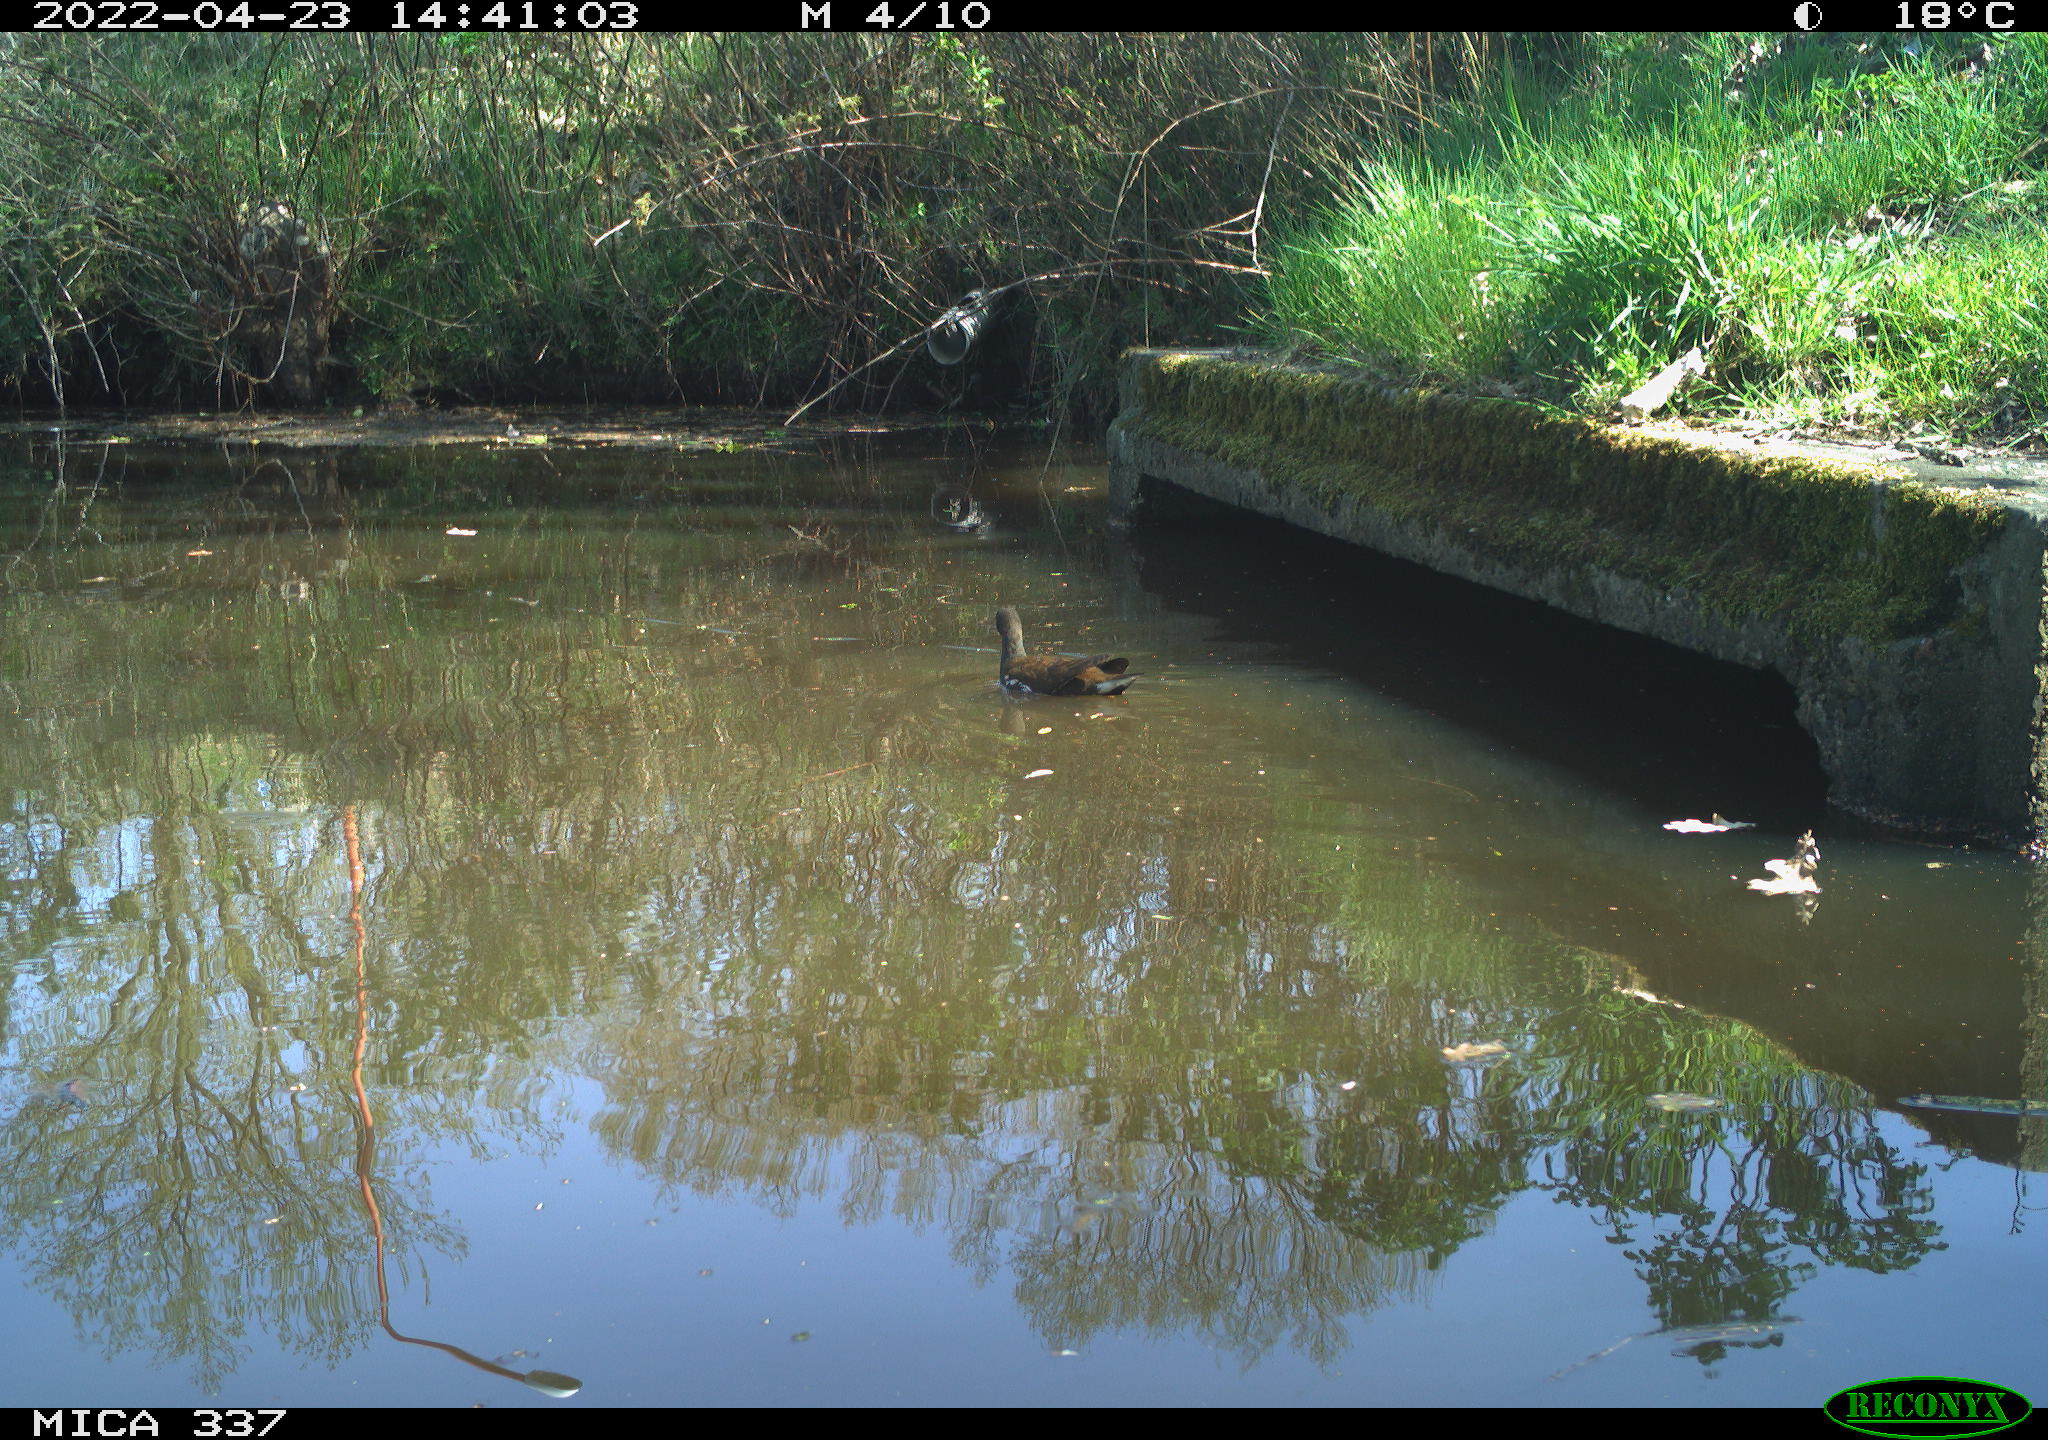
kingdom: Animalia
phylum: Chordata
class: Aves
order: Gruiformes
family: Rallidae
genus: Gallinula
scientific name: Gallinula chloropus
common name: Common moorhen
